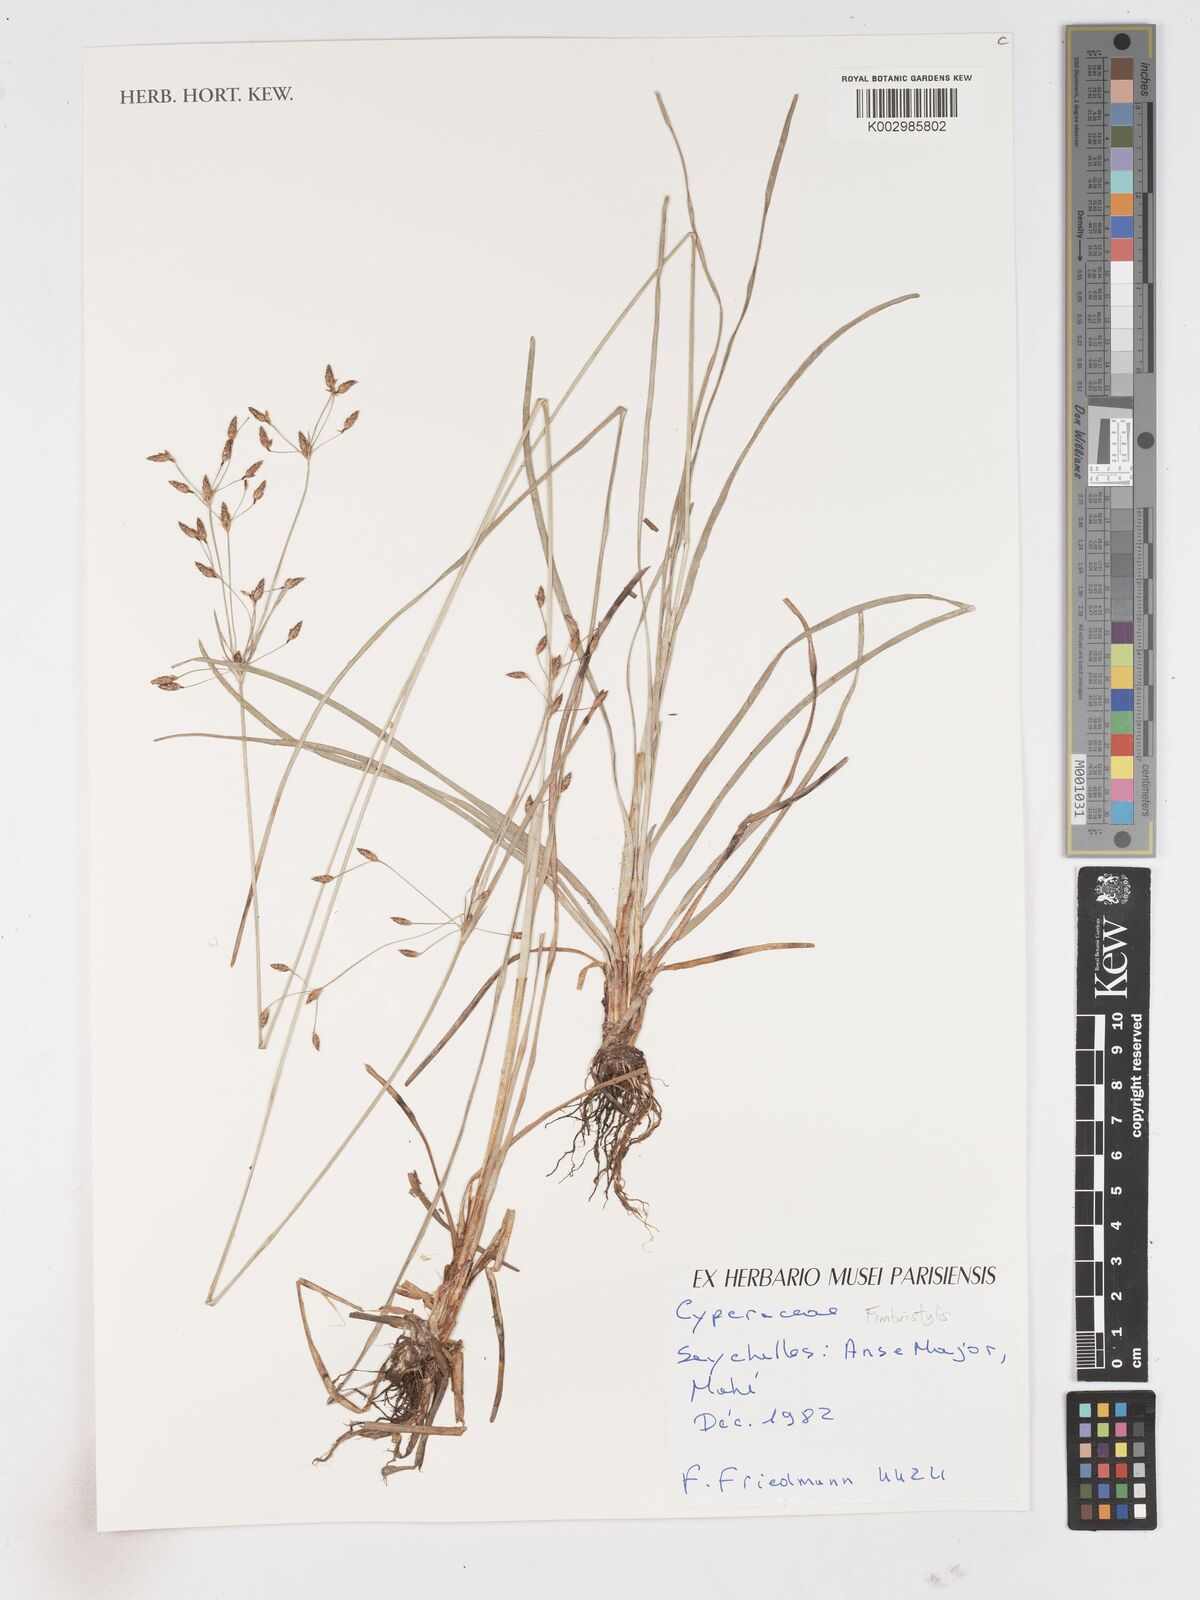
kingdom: Plantae
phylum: Tracheophyta
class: Liliopsida
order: Poales
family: Cyperaceae
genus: Fimbristylis
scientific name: Fimbristylis
